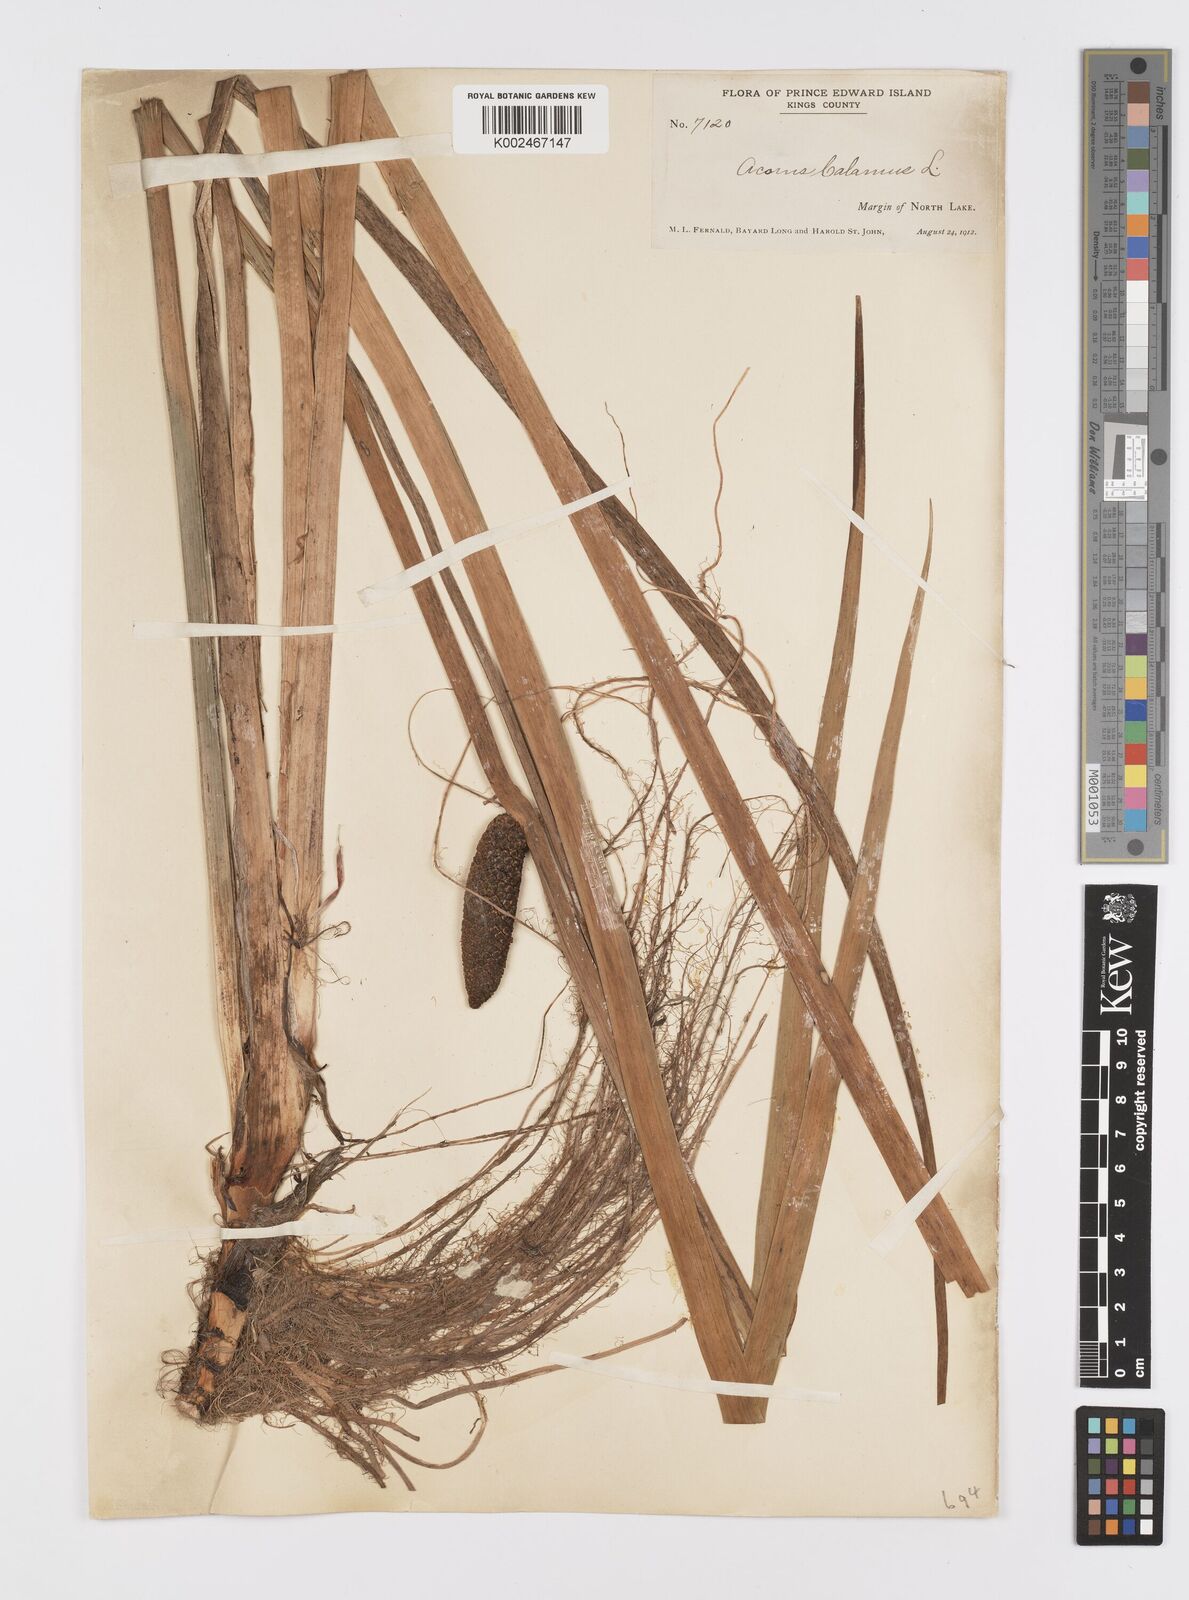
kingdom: Plantae
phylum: Tracheophyta
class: Liliopsida
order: Acorales
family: Acoraceae
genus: Acorus
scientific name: Acorus calamus
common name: Sweet-flag
